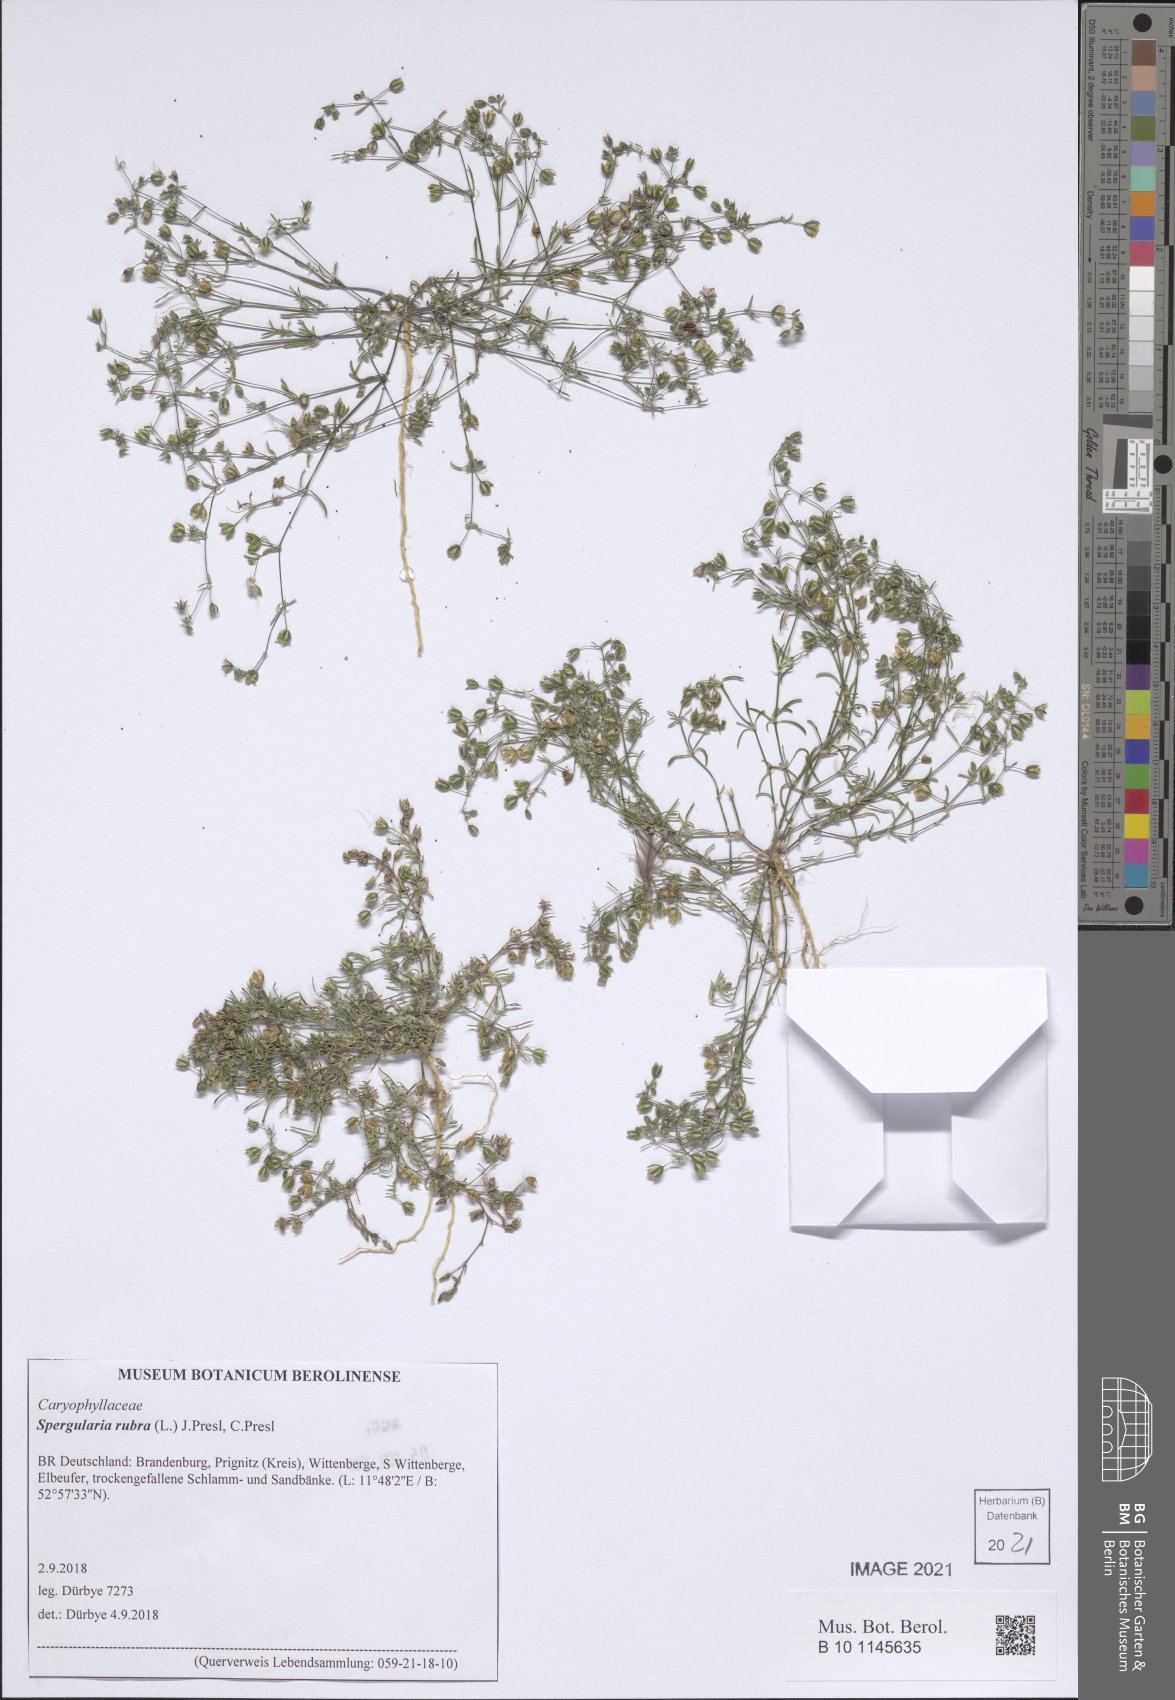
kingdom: Plantae
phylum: Tracheophyta
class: Magnoliopsida
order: Caryophyllales
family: Caryophyllaceae
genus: Spergularia
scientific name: Spergularia rubra
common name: Red sand-spurrey
